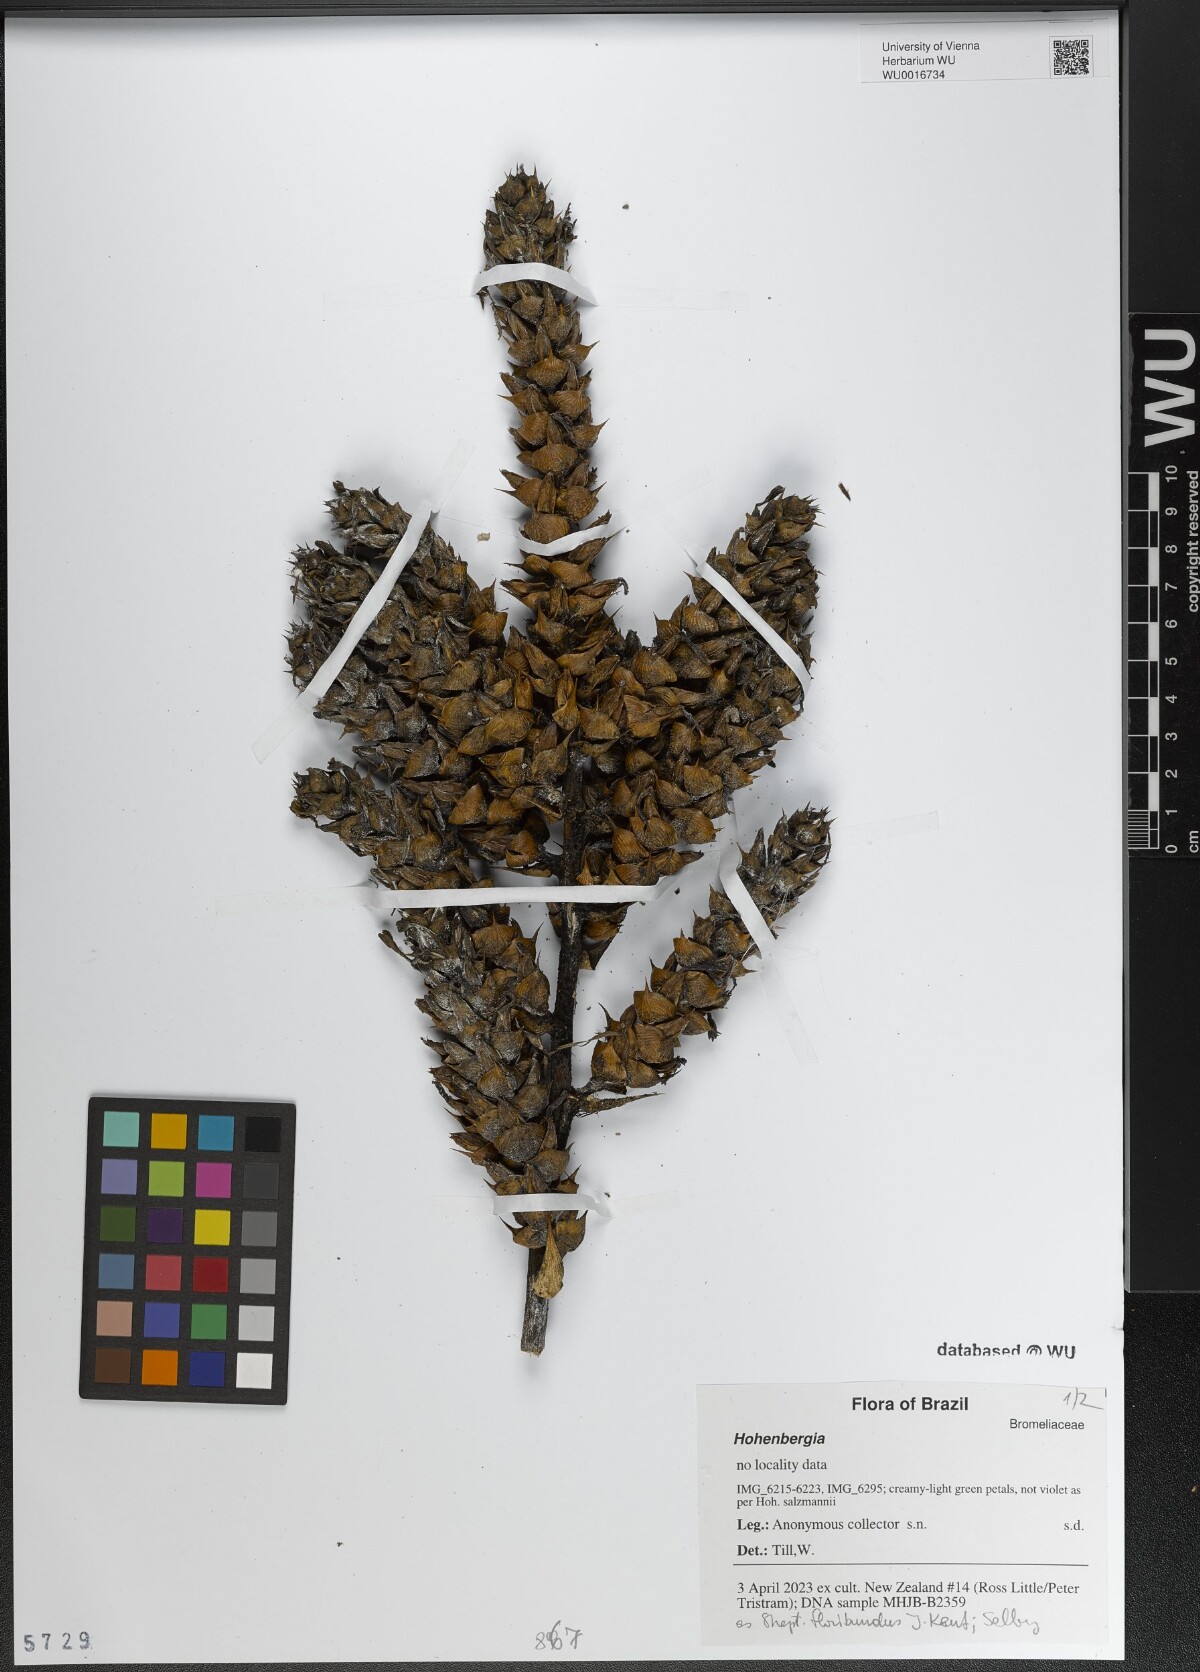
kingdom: Plantae
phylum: Tracheophyta
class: Liliopsida
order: Poales
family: Bromeliaceae
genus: Hohenbergia
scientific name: Hohenbergia
